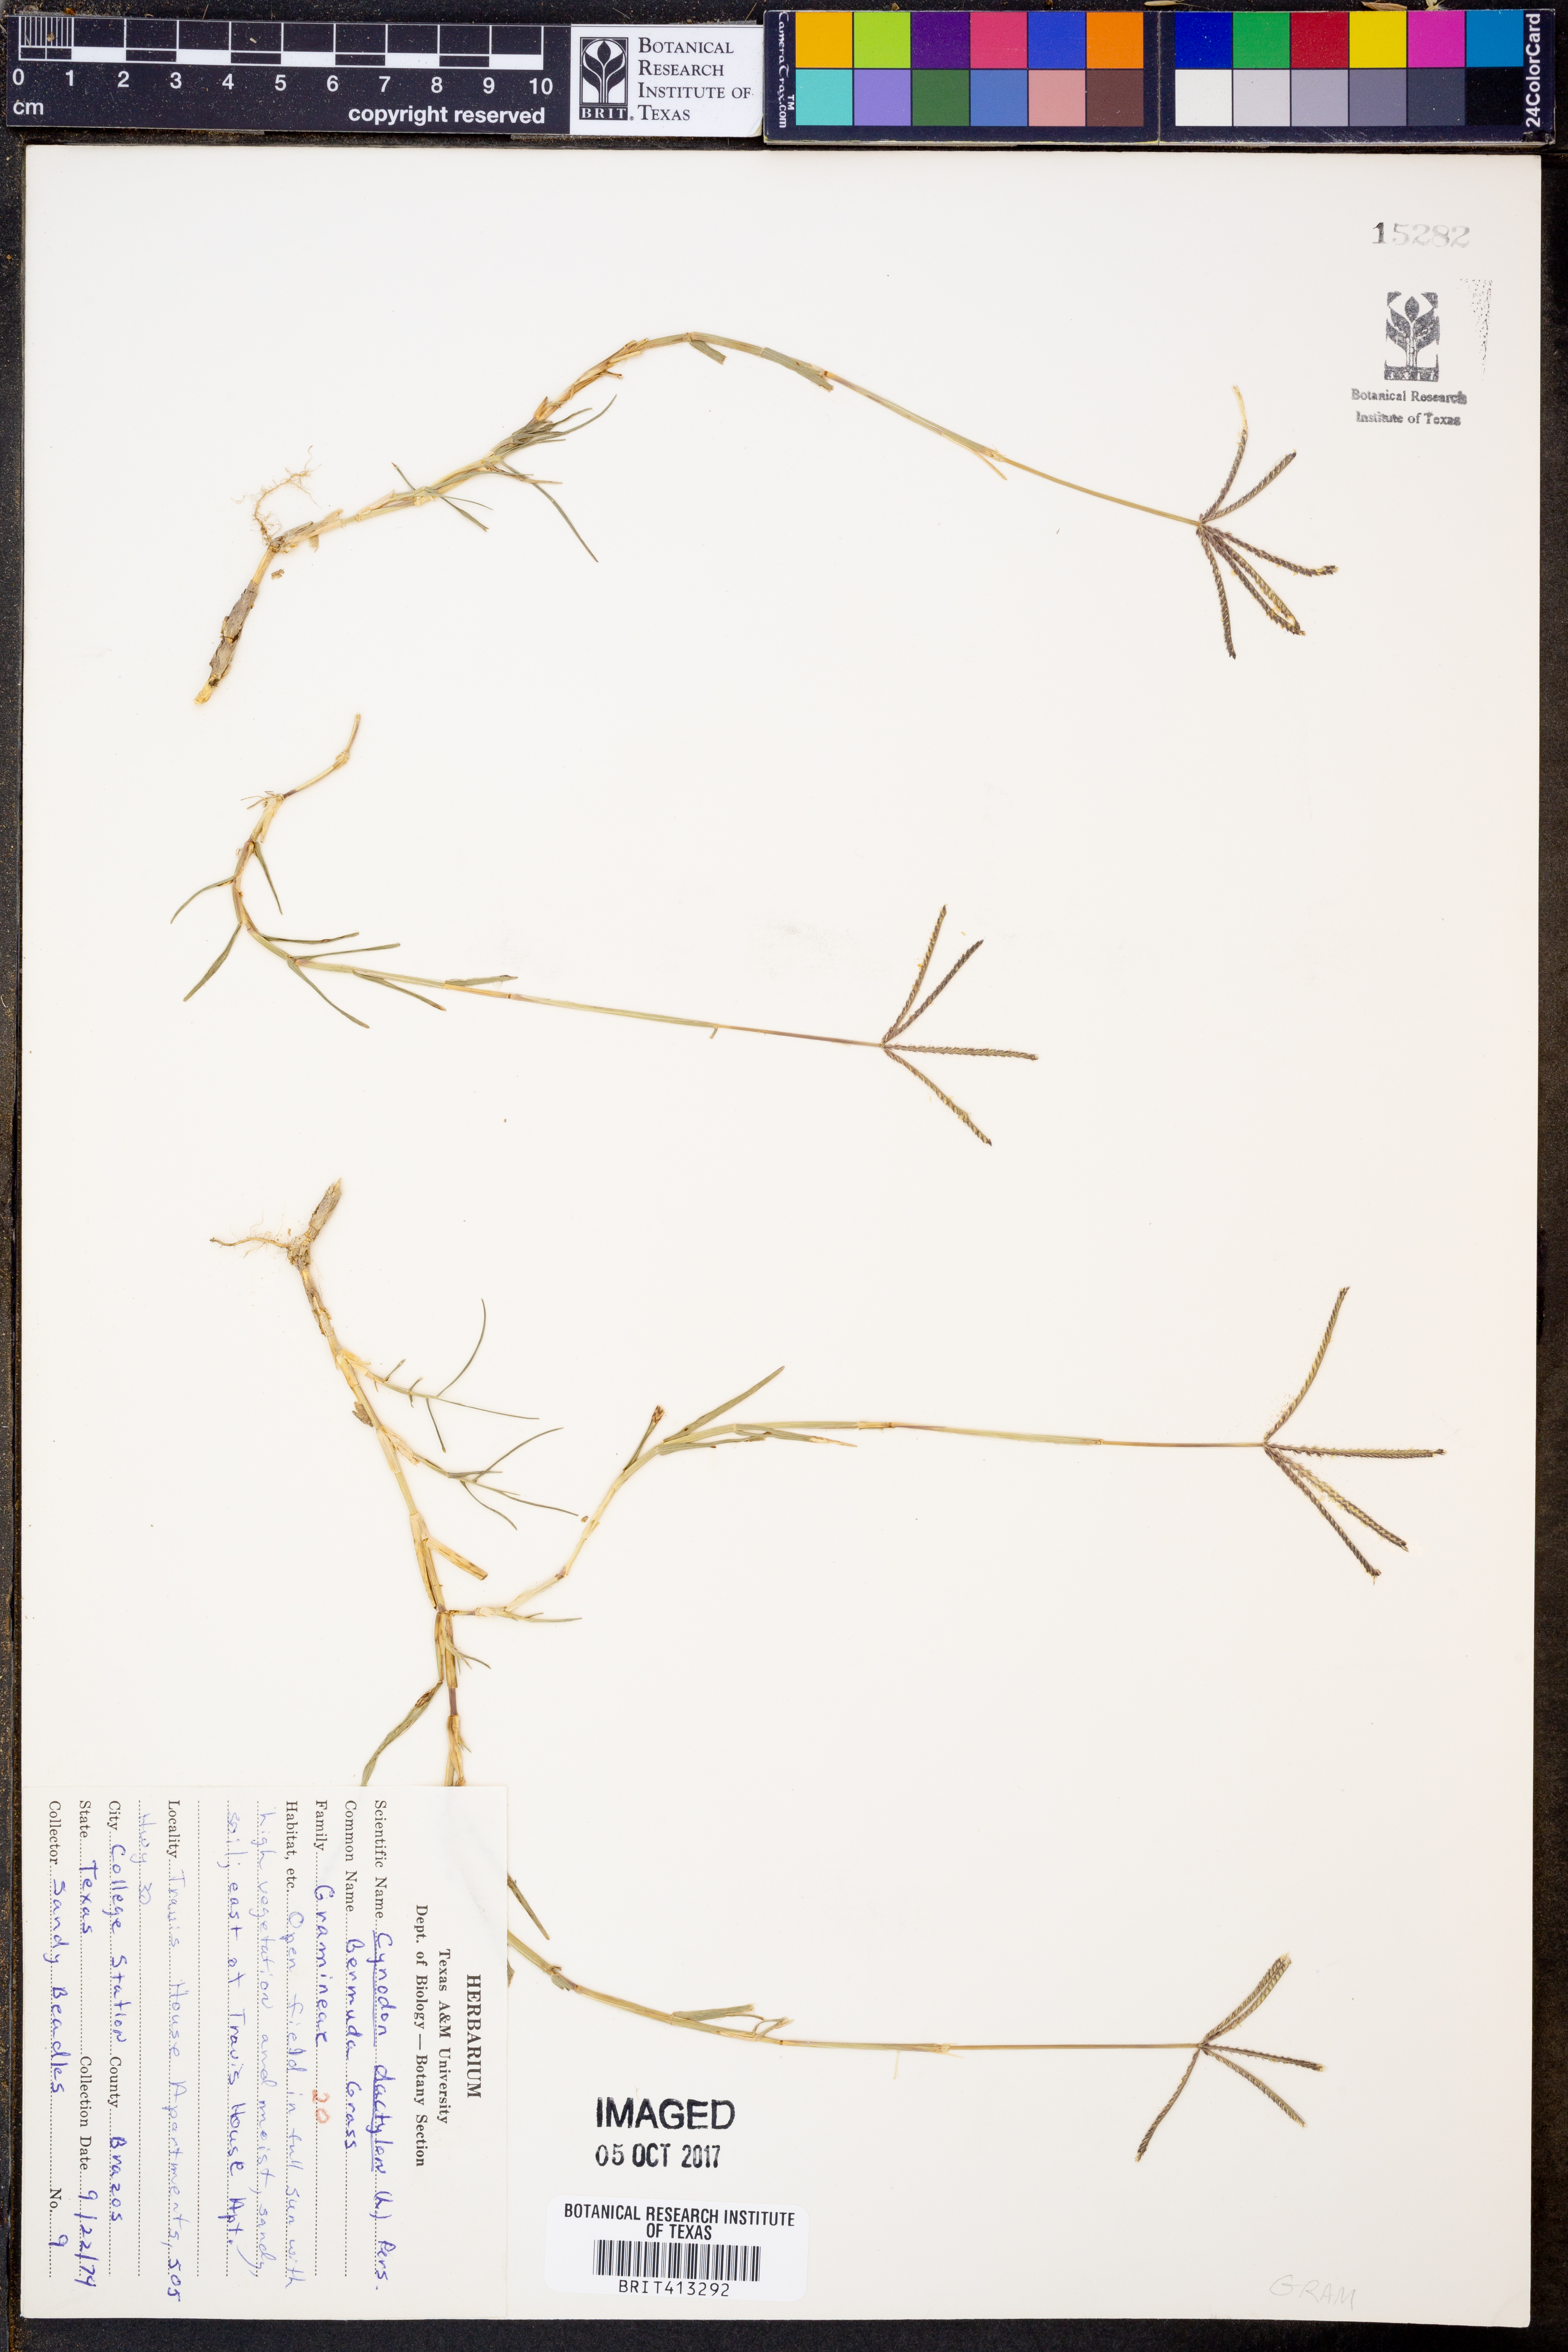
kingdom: Plantae
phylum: Tracheophyta
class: Liliopsida
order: Poales
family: Poaceae
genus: Cynodon
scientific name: Cynodon dactylon
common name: Bermuda grass
